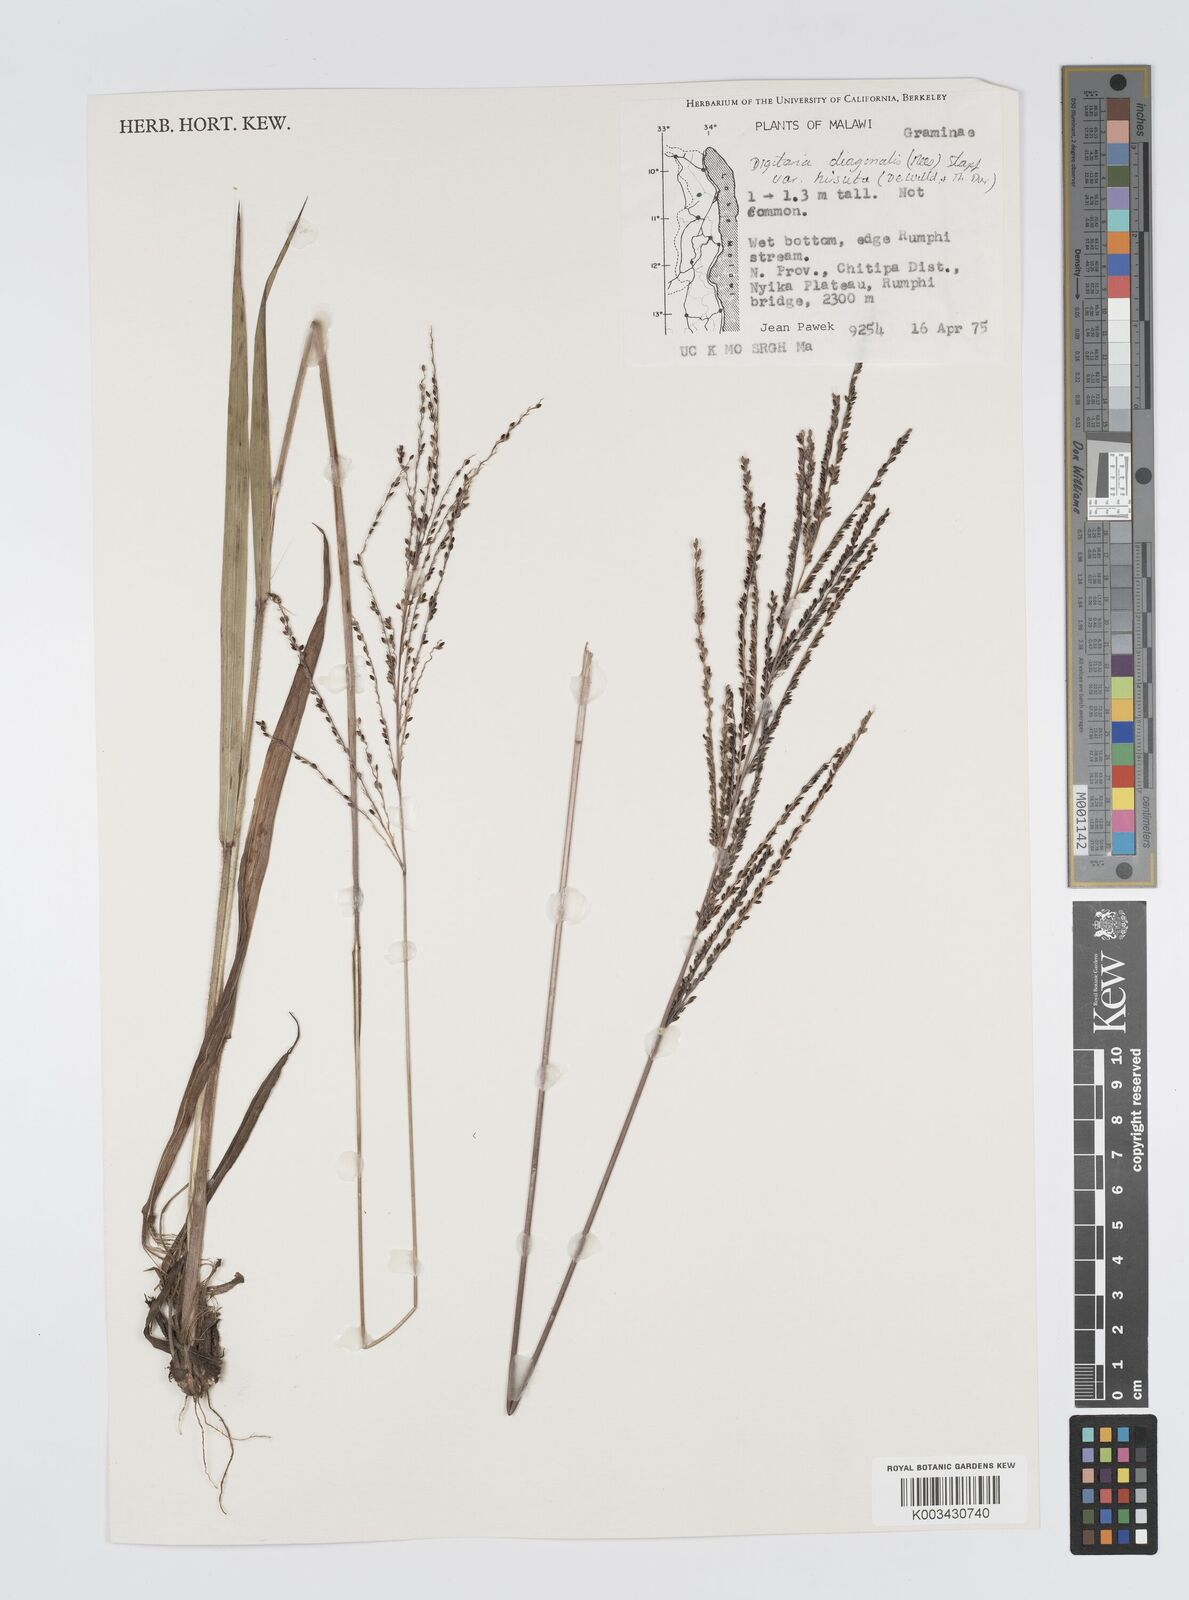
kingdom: Plantae
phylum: Tracheophyta
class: Liliopsida
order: Poales
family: Poaceae
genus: Digitaria
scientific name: Digitaria diagonalis
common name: Brown-seed finger grass
